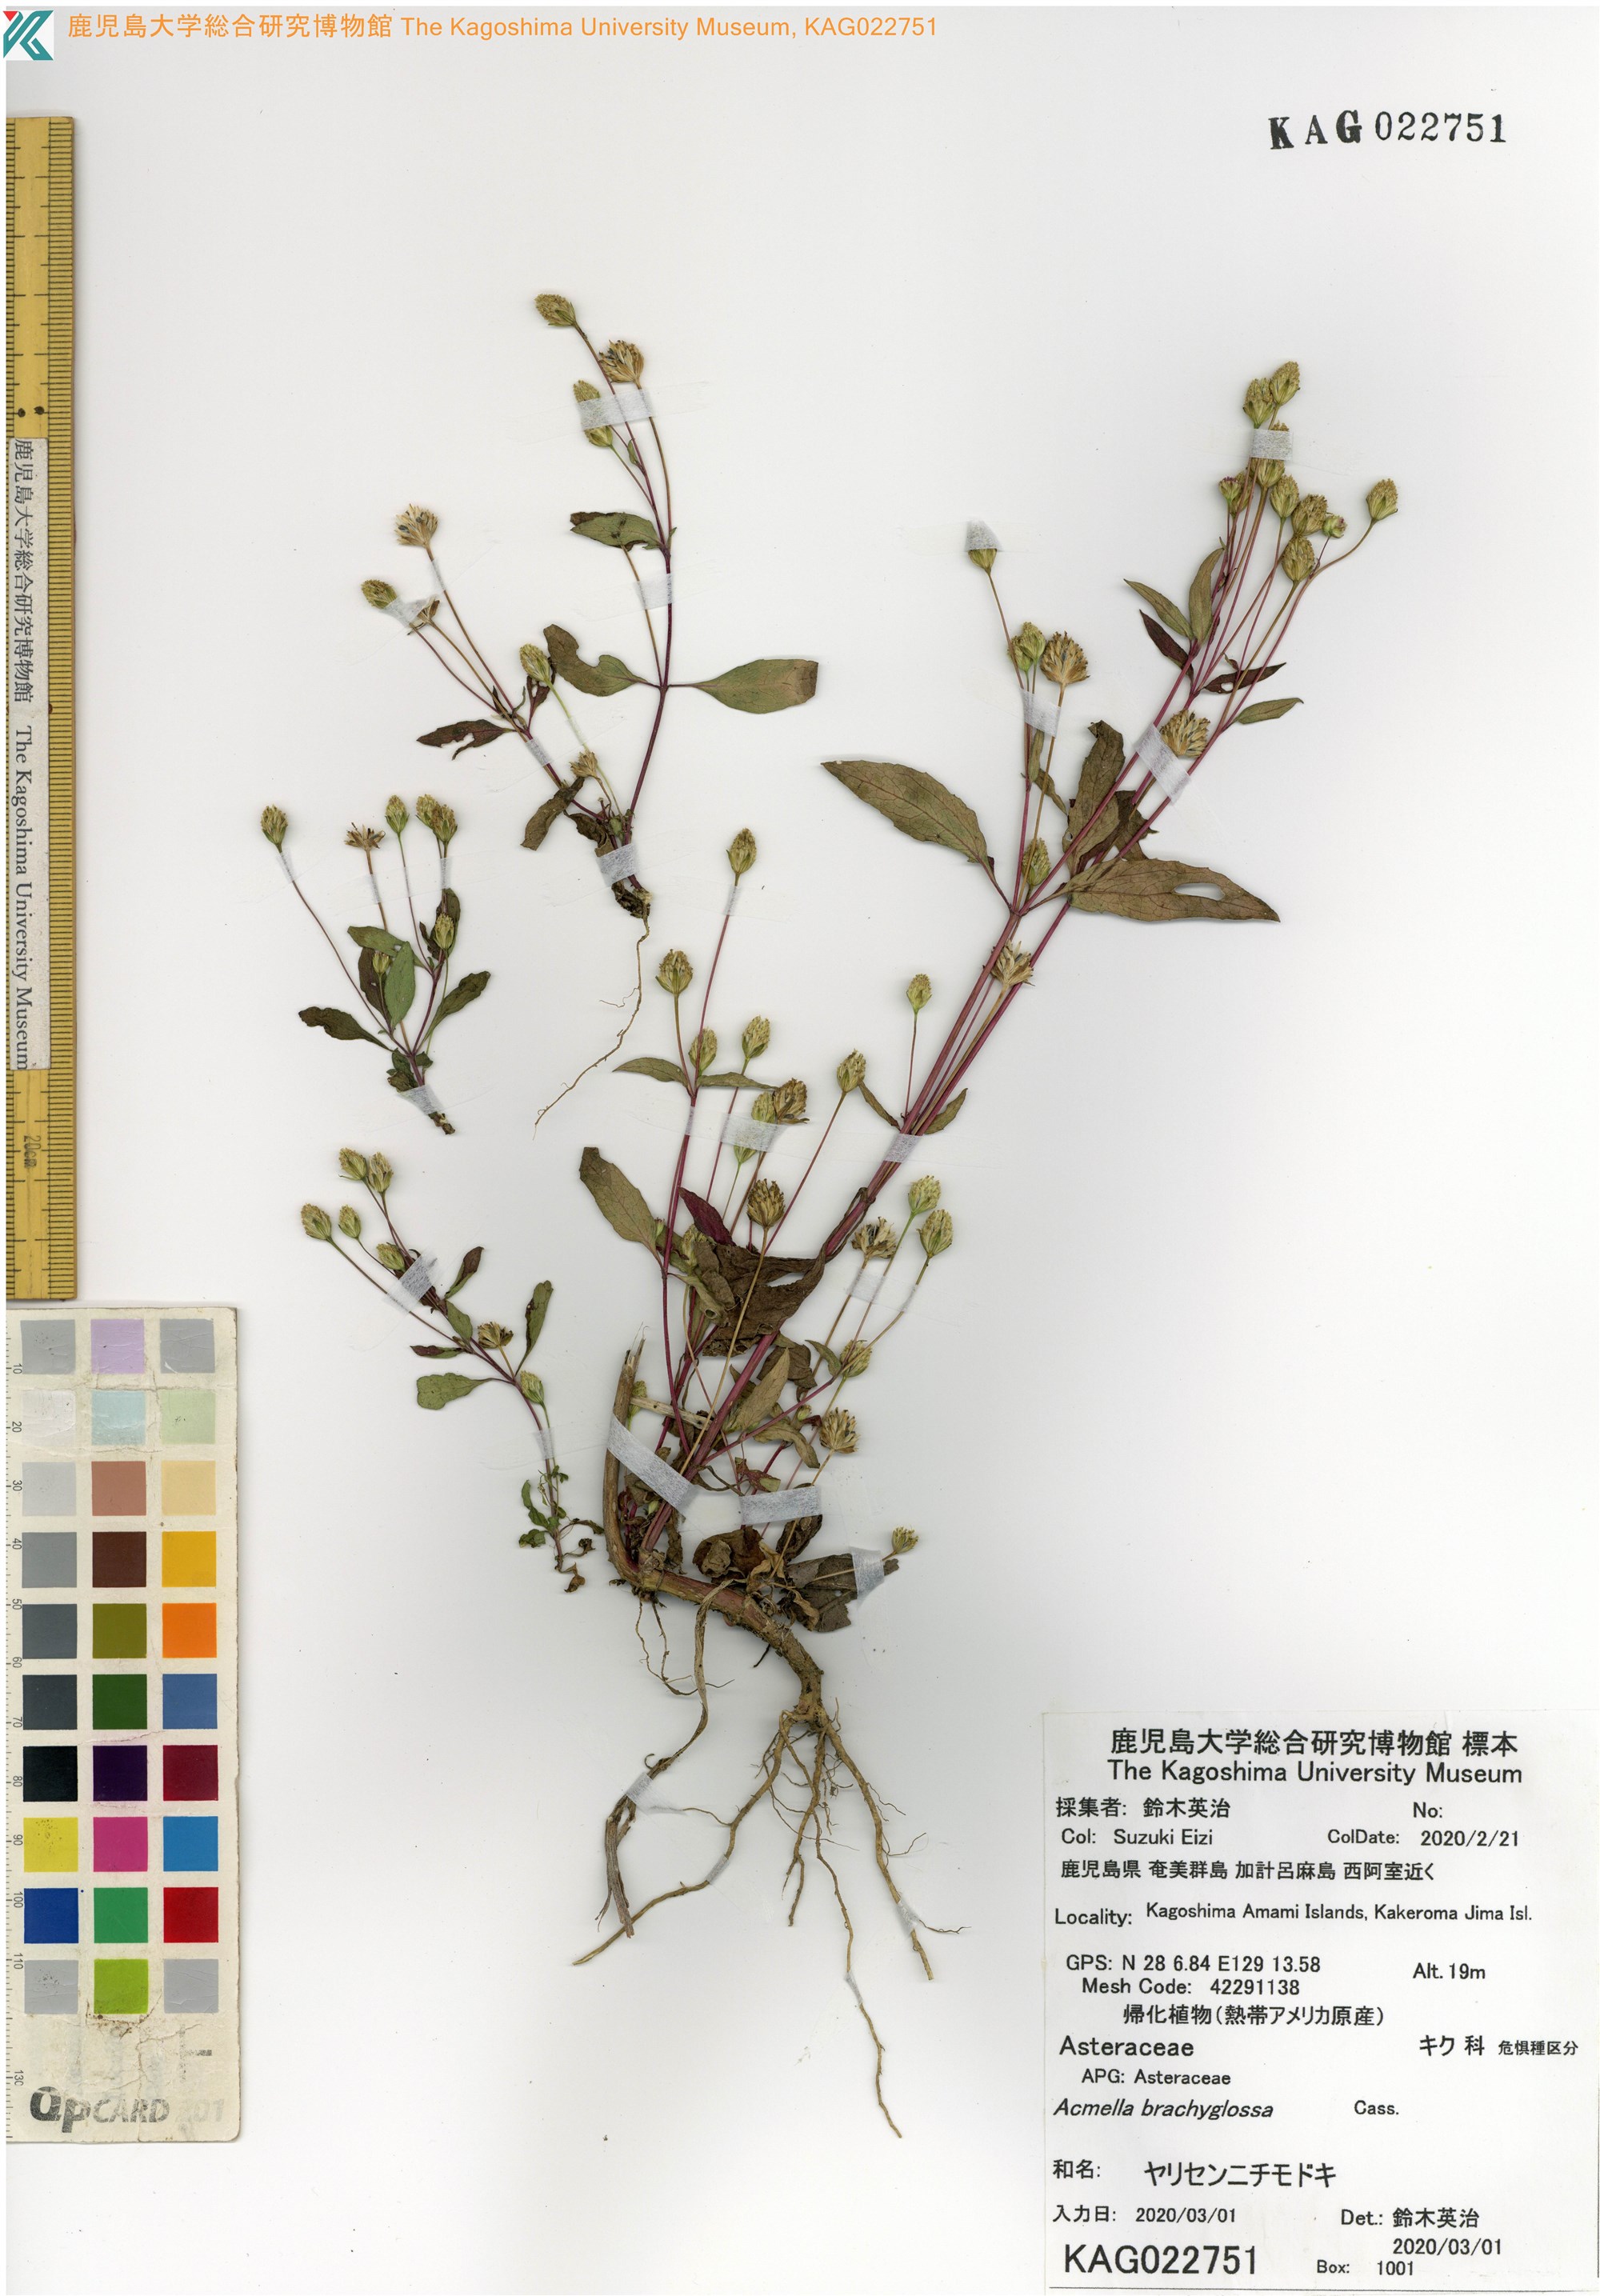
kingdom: Plantae
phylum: Tracheophyta
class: Magnoliopsida
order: Asterales
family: Asteraceae
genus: Acmella
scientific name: Acmella brachyglossa
